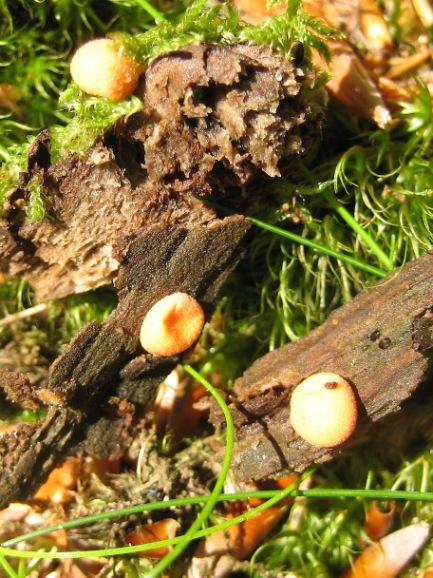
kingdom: Protozoa
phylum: Mycetozoa
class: Myxomycetes
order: Cribrariales
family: Tubiferaceae
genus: Lycogala
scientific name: Lycogala epidendrum
